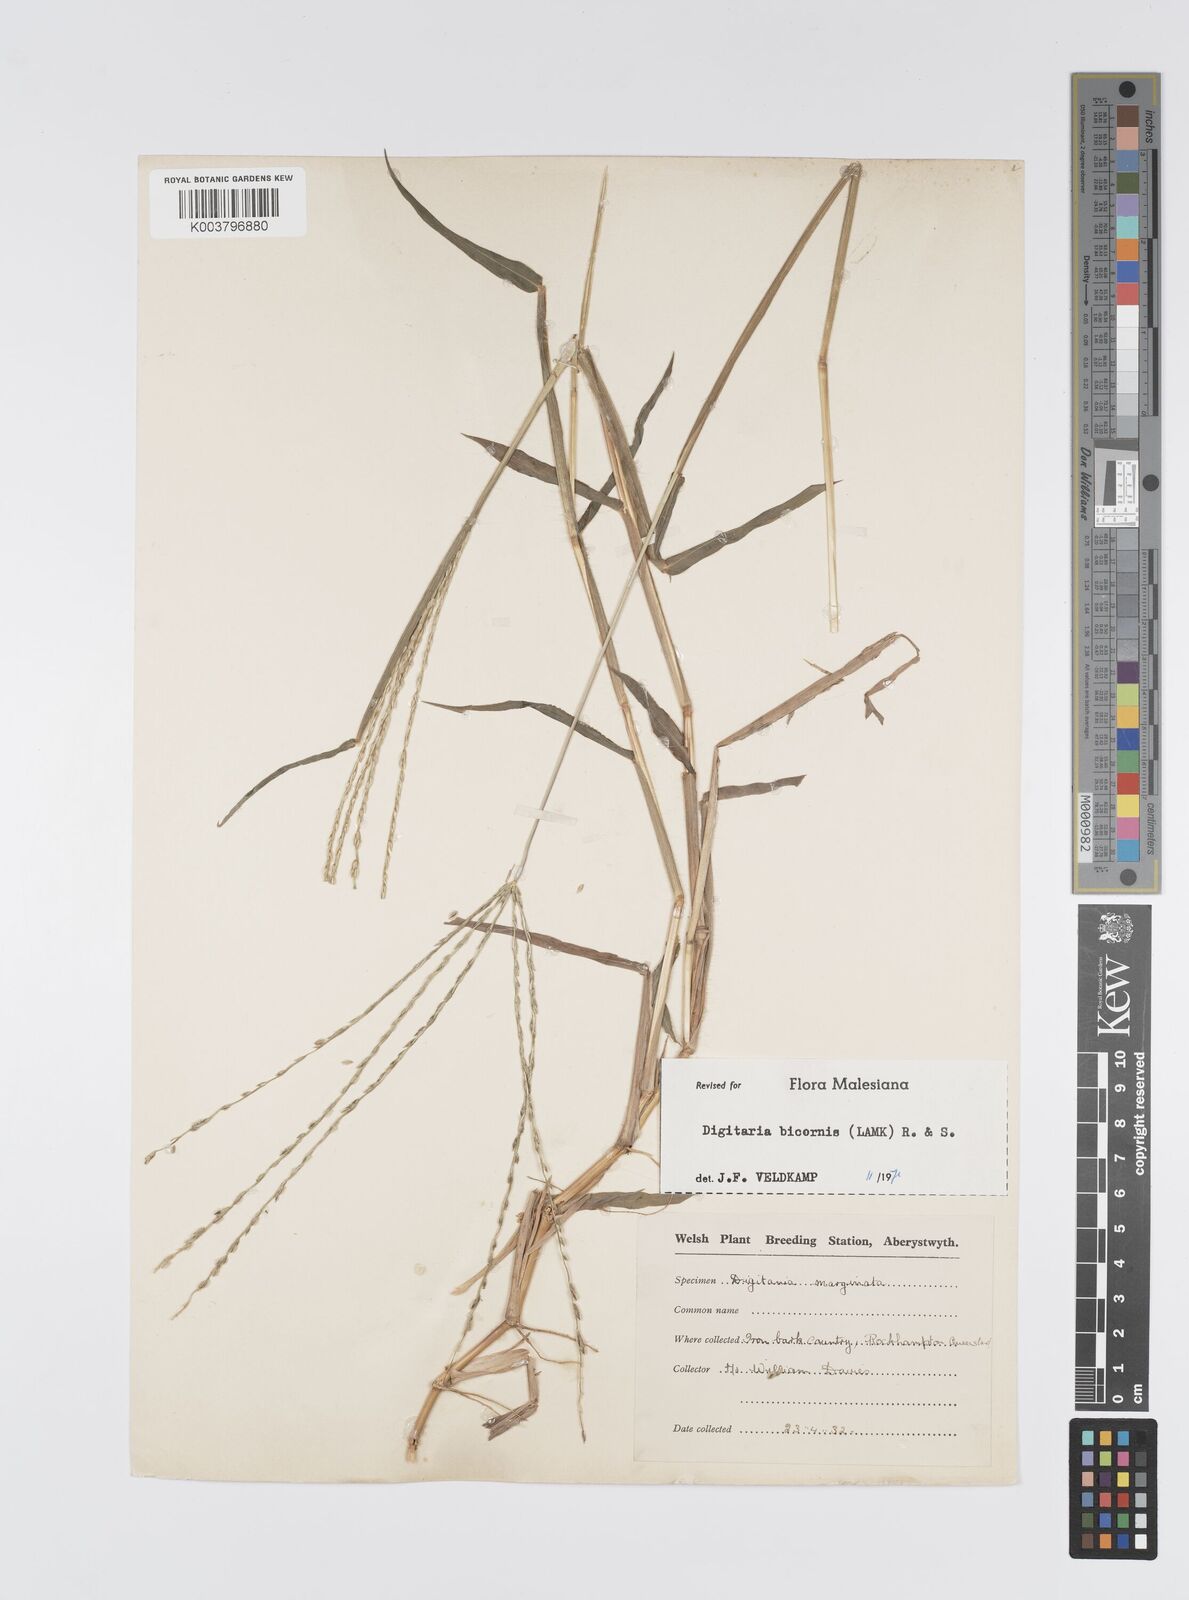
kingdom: Plantae
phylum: Tracheophyta
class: Liliopsida
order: Poales
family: Poaceae
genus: Digitaria
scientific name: Digitaria bicornis
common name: Asian crabgrass
